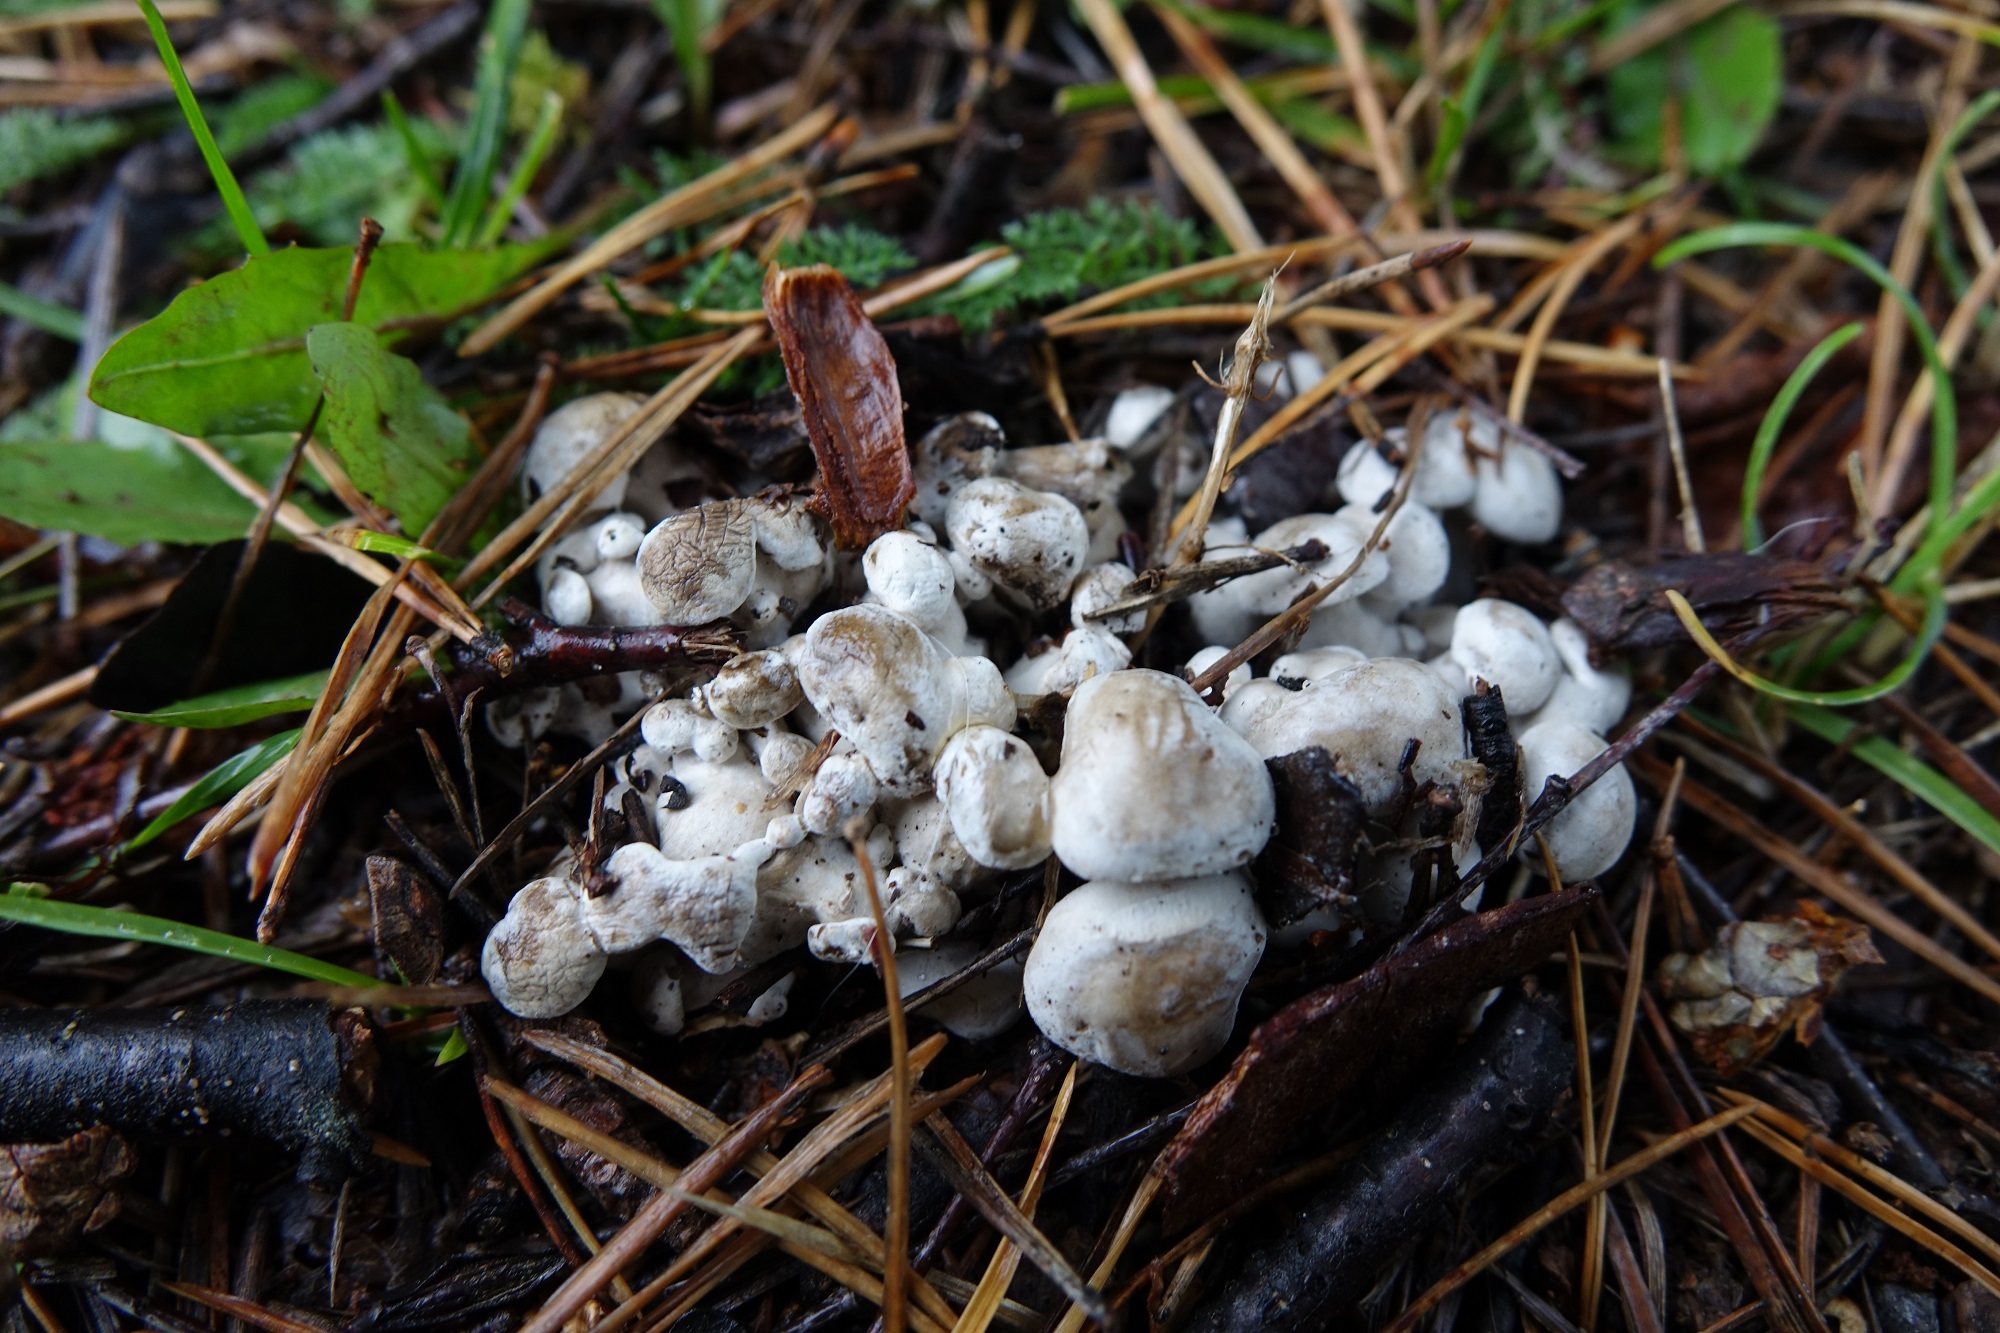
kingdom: Fungi
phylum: Basidiomycota
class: Agaricomycetes
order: Agaricales
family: Lyophyllaceae
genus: Asterophora
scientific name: Asterophora lycoperdoides
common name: Pick-a-back toadstool
